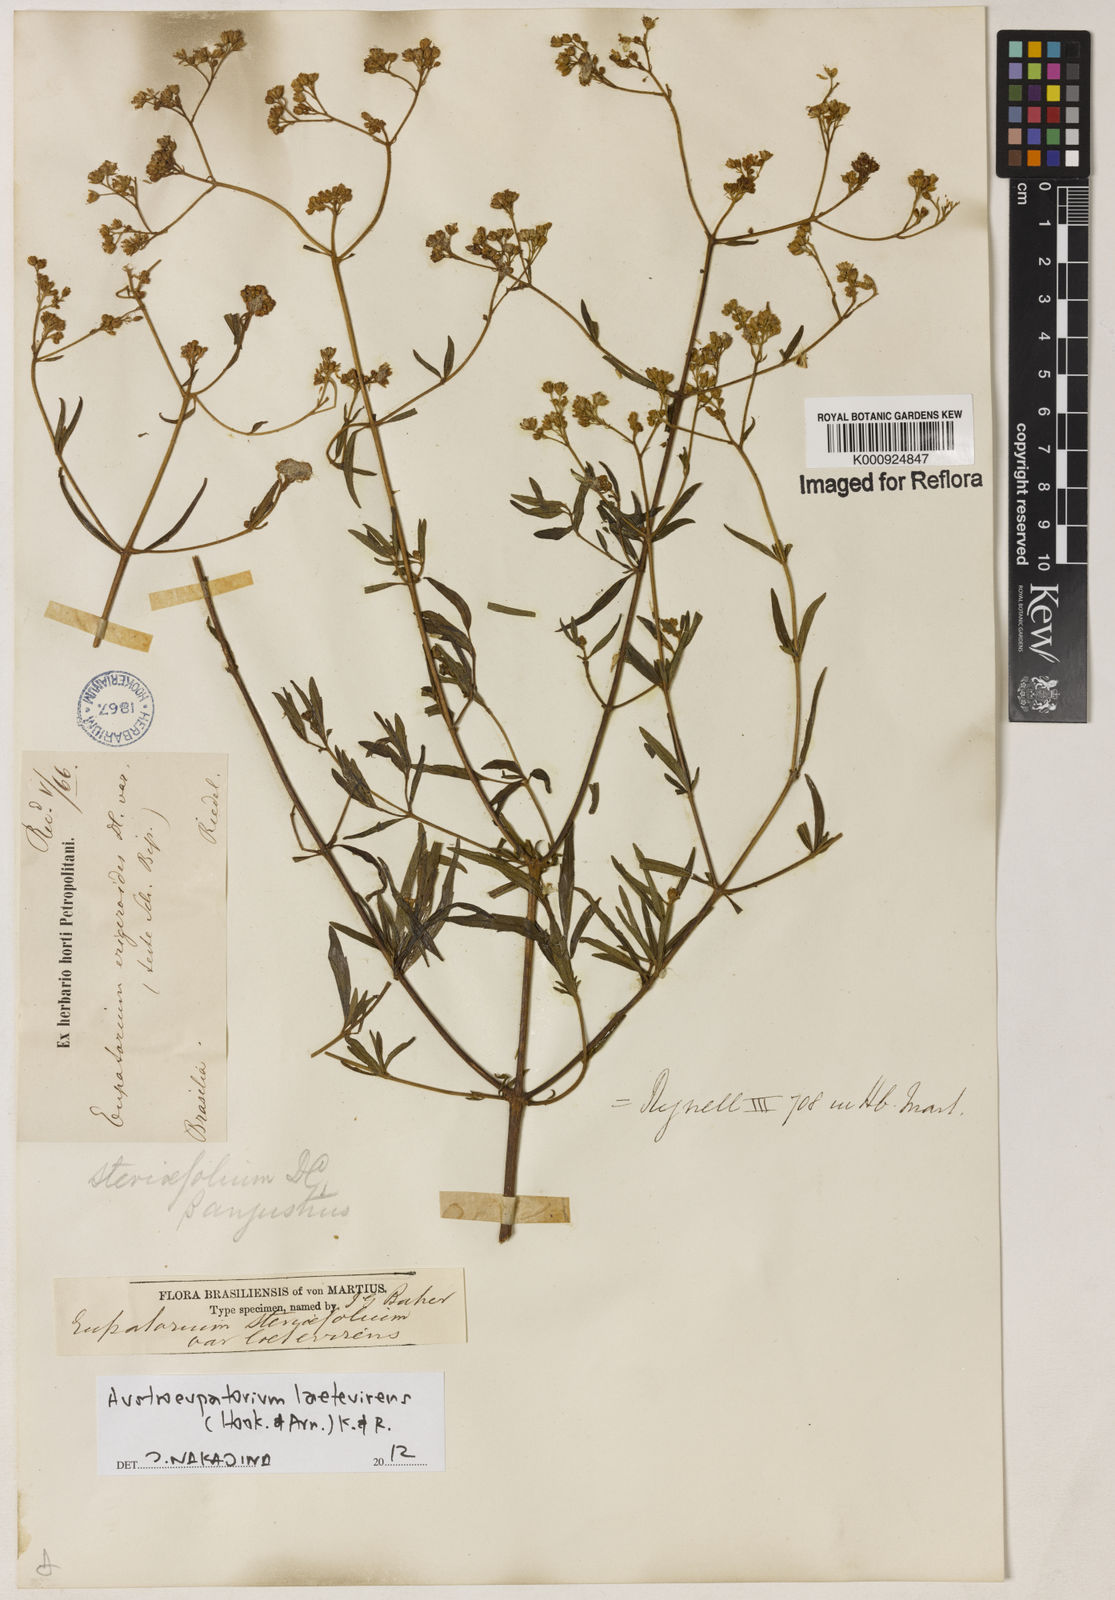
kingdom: Plantae
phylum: Tracheophyta
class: Magnoliopsida
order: Asterales
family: Asteraceae
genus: Austroeupatorium
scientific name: Austroeupatorium laetevirens
